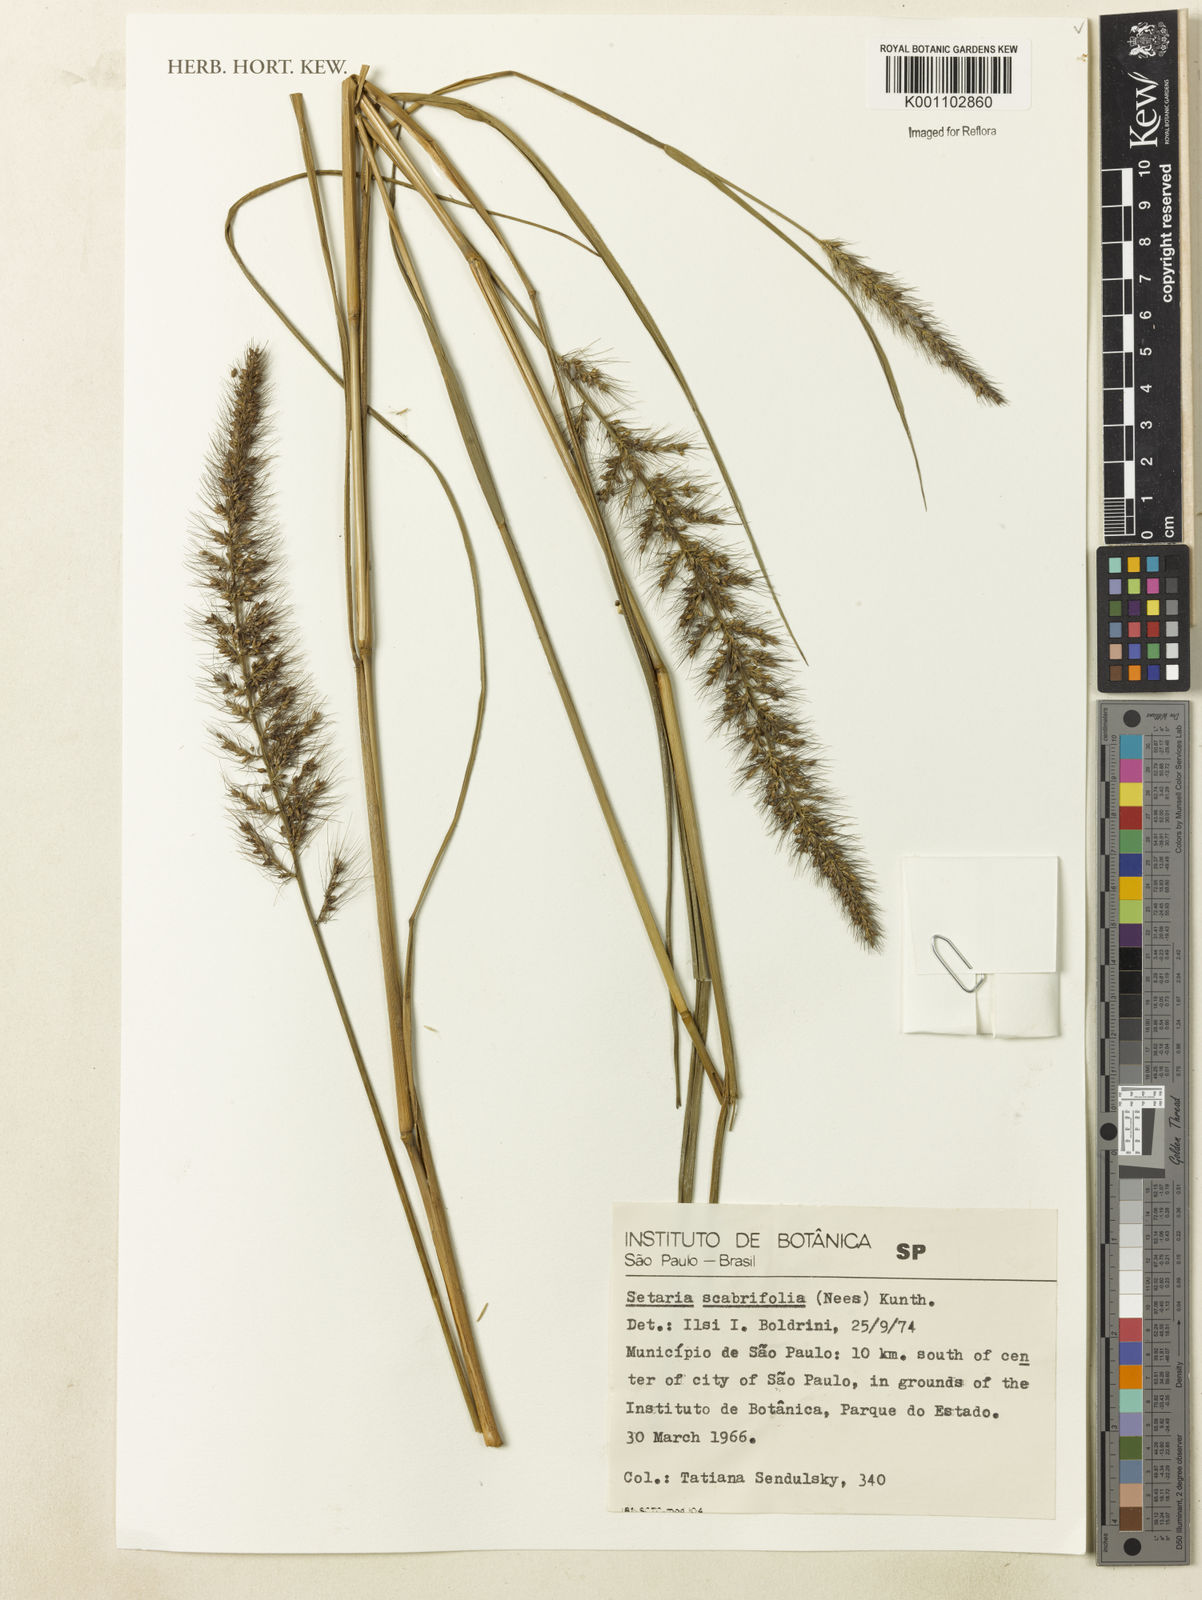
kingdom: Plantae
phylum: Tracheophyta
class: Liliopsida
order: Poales
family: Poaceae
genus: Setaria
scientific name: Setaria scabrifolia
